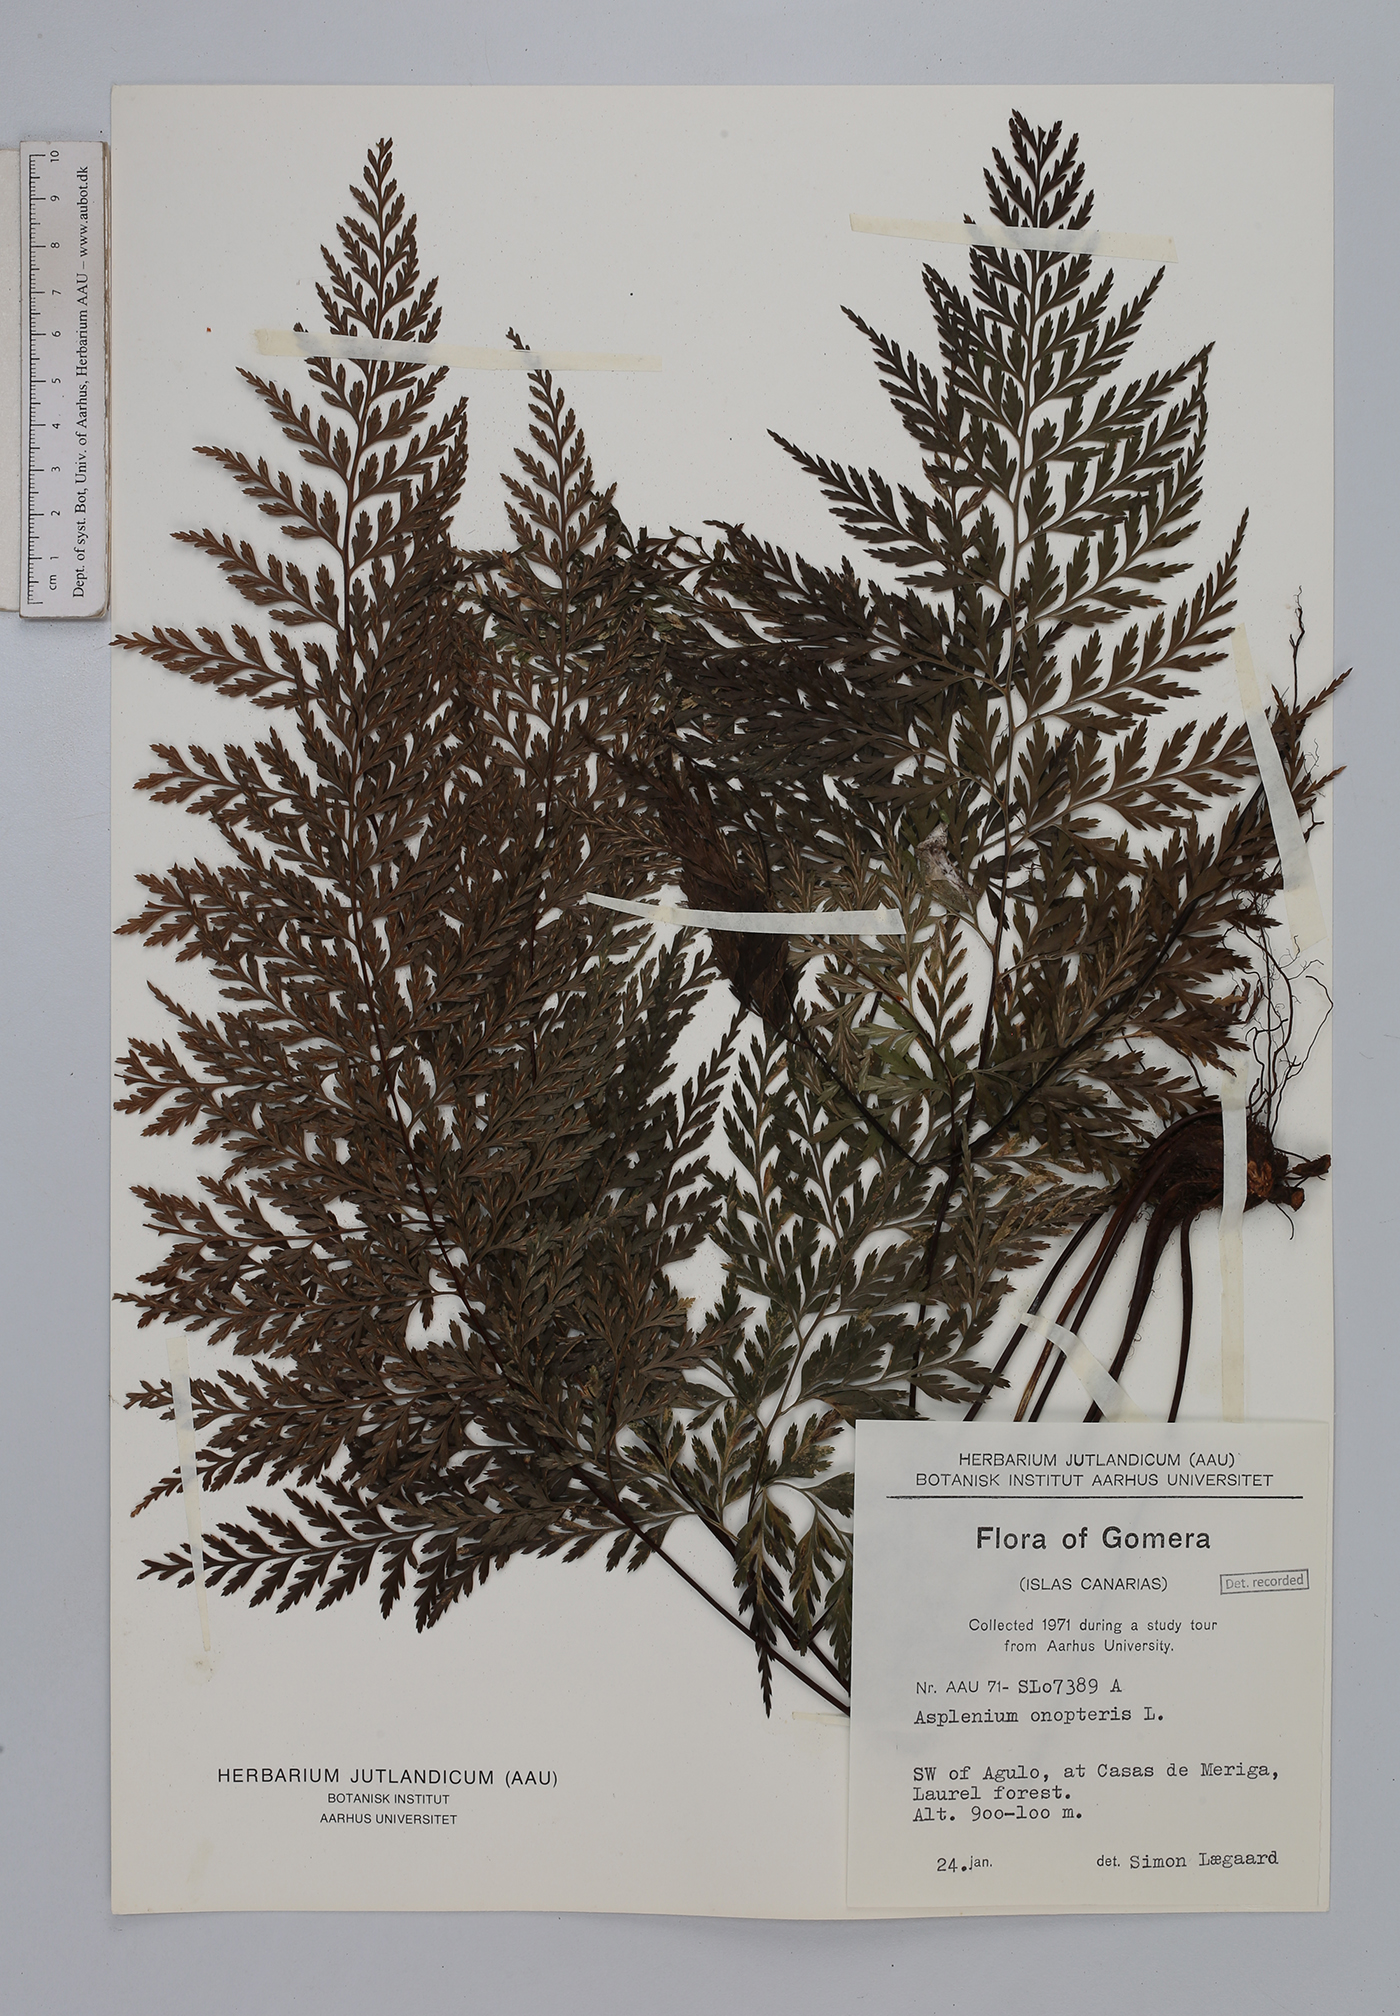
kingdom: Plantae
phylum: Tracheophyta
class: Polypodiopsida
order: Polypodiales
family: Aspleniaceae
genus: Asplenium
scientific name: Asplenium onopteris
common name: Irish spleenwort
